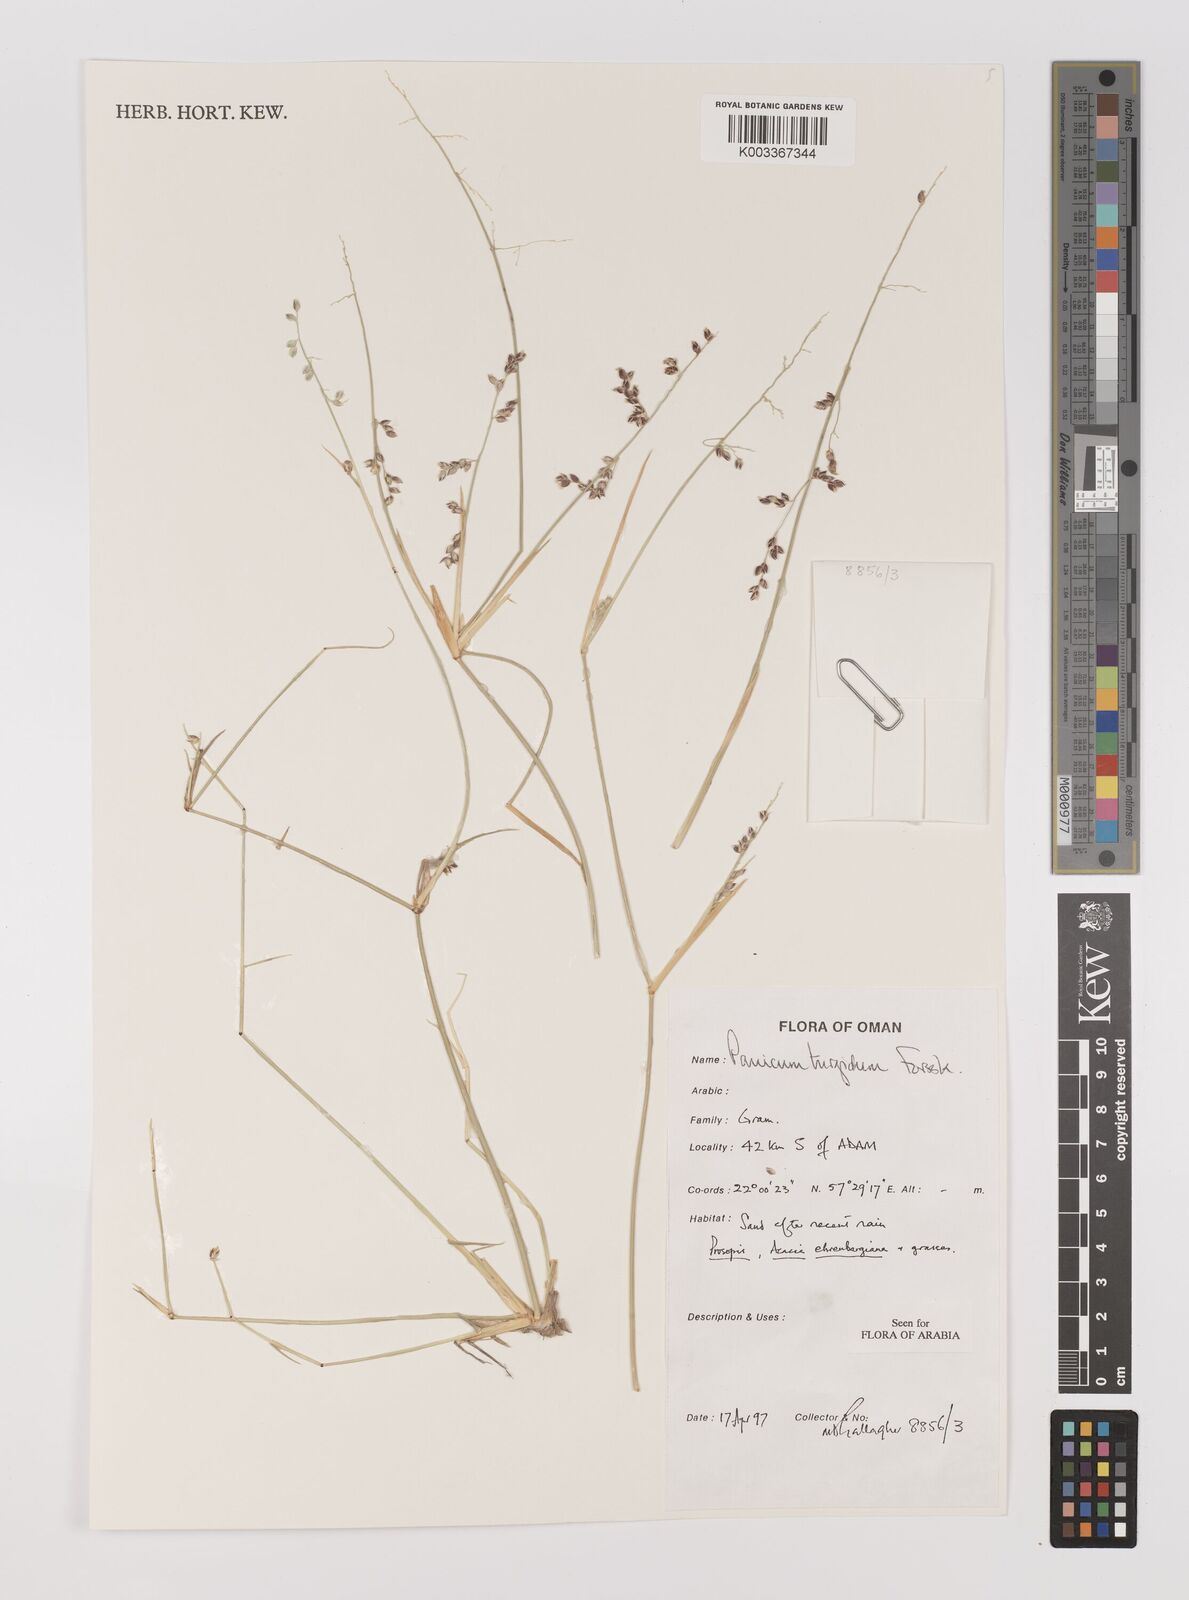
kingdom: Plantae
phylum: Tracheophyta
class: Liliopsida
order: Poales
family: Poaceae
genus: Panicum
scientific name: Panicum turgidum
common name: Desert grass
